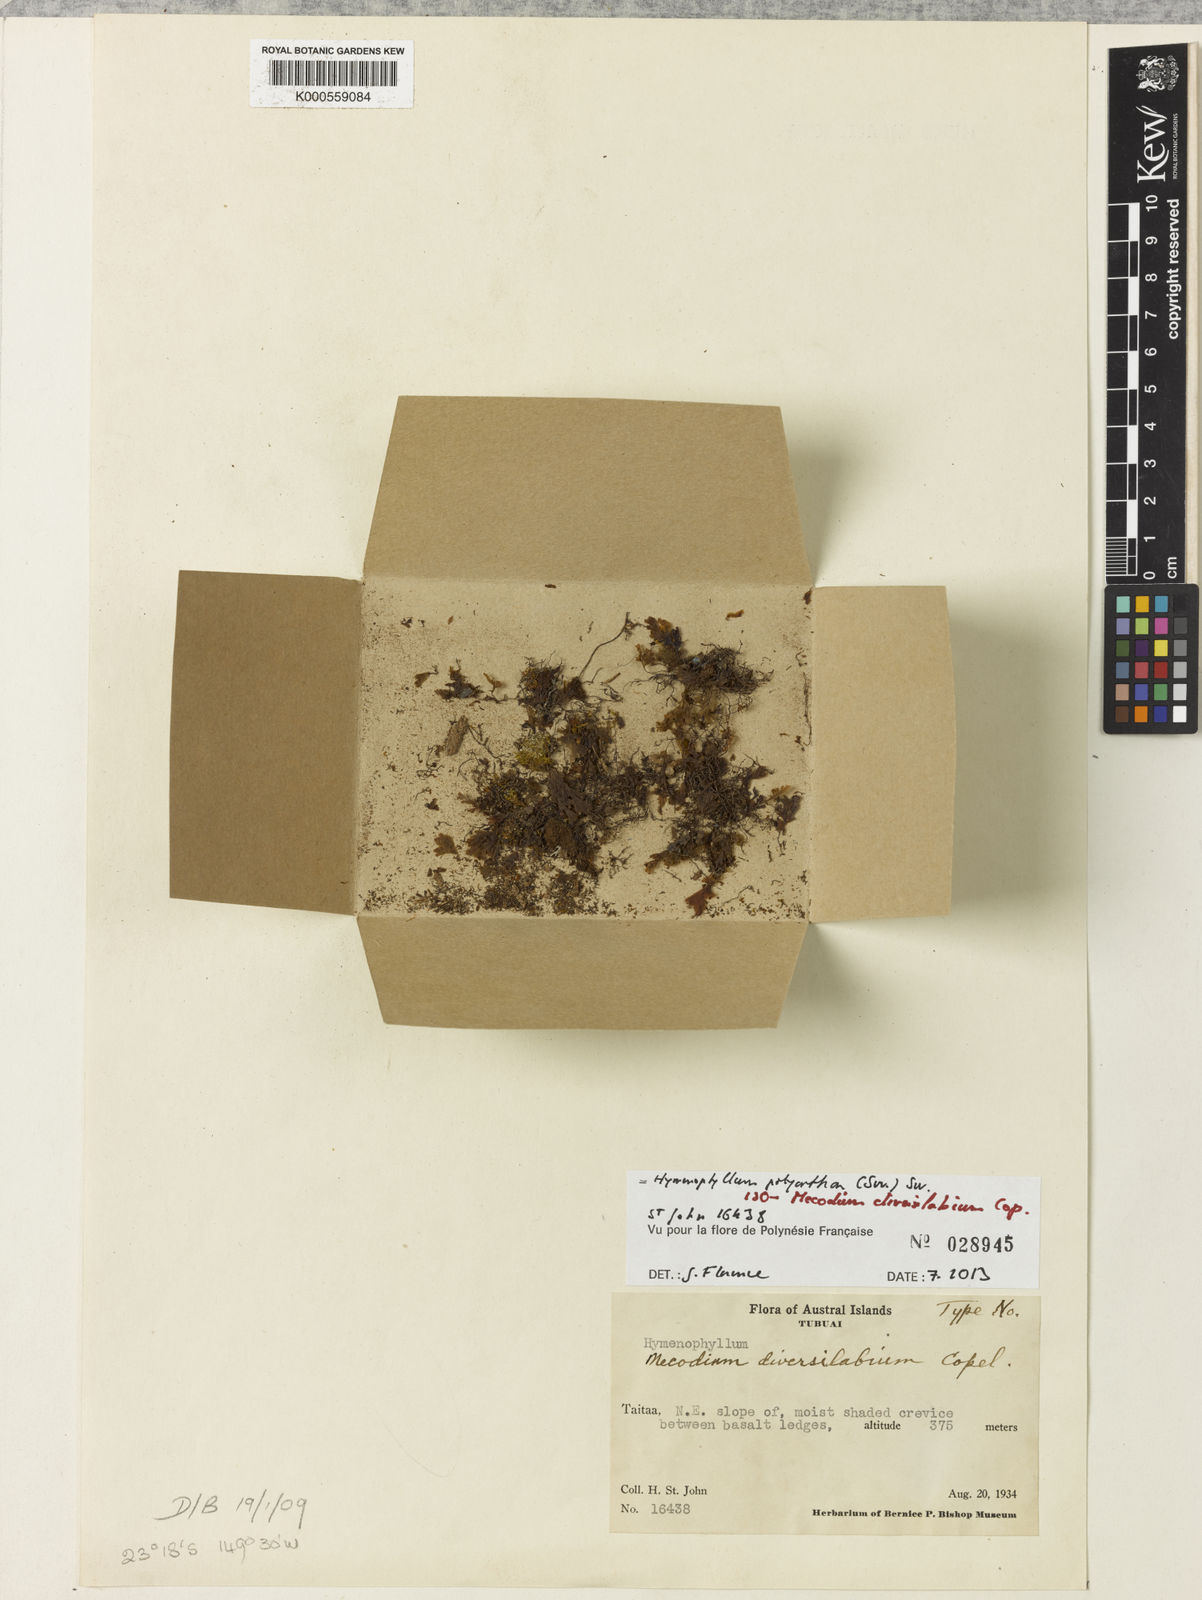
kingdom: Plantae
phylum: Tracheophyta
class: Polypodiopsida
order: Hymenophyllales
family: Hymenophyllaceae
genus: Hymenophyllum
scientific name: Hymenophyllum polyanthos
